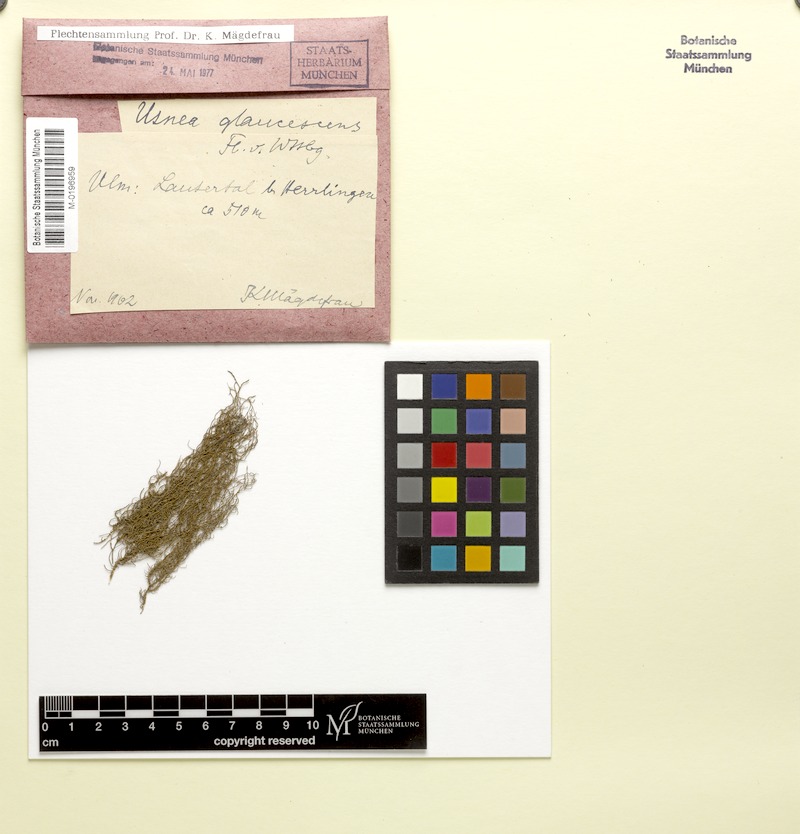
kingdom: Fungi
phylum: Ascomycota
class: Lecanoromycetes
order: Lecanorales
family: Parmeliaceae
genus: Usnea
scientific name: Usnea hirta
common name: Bristly beard lichen
